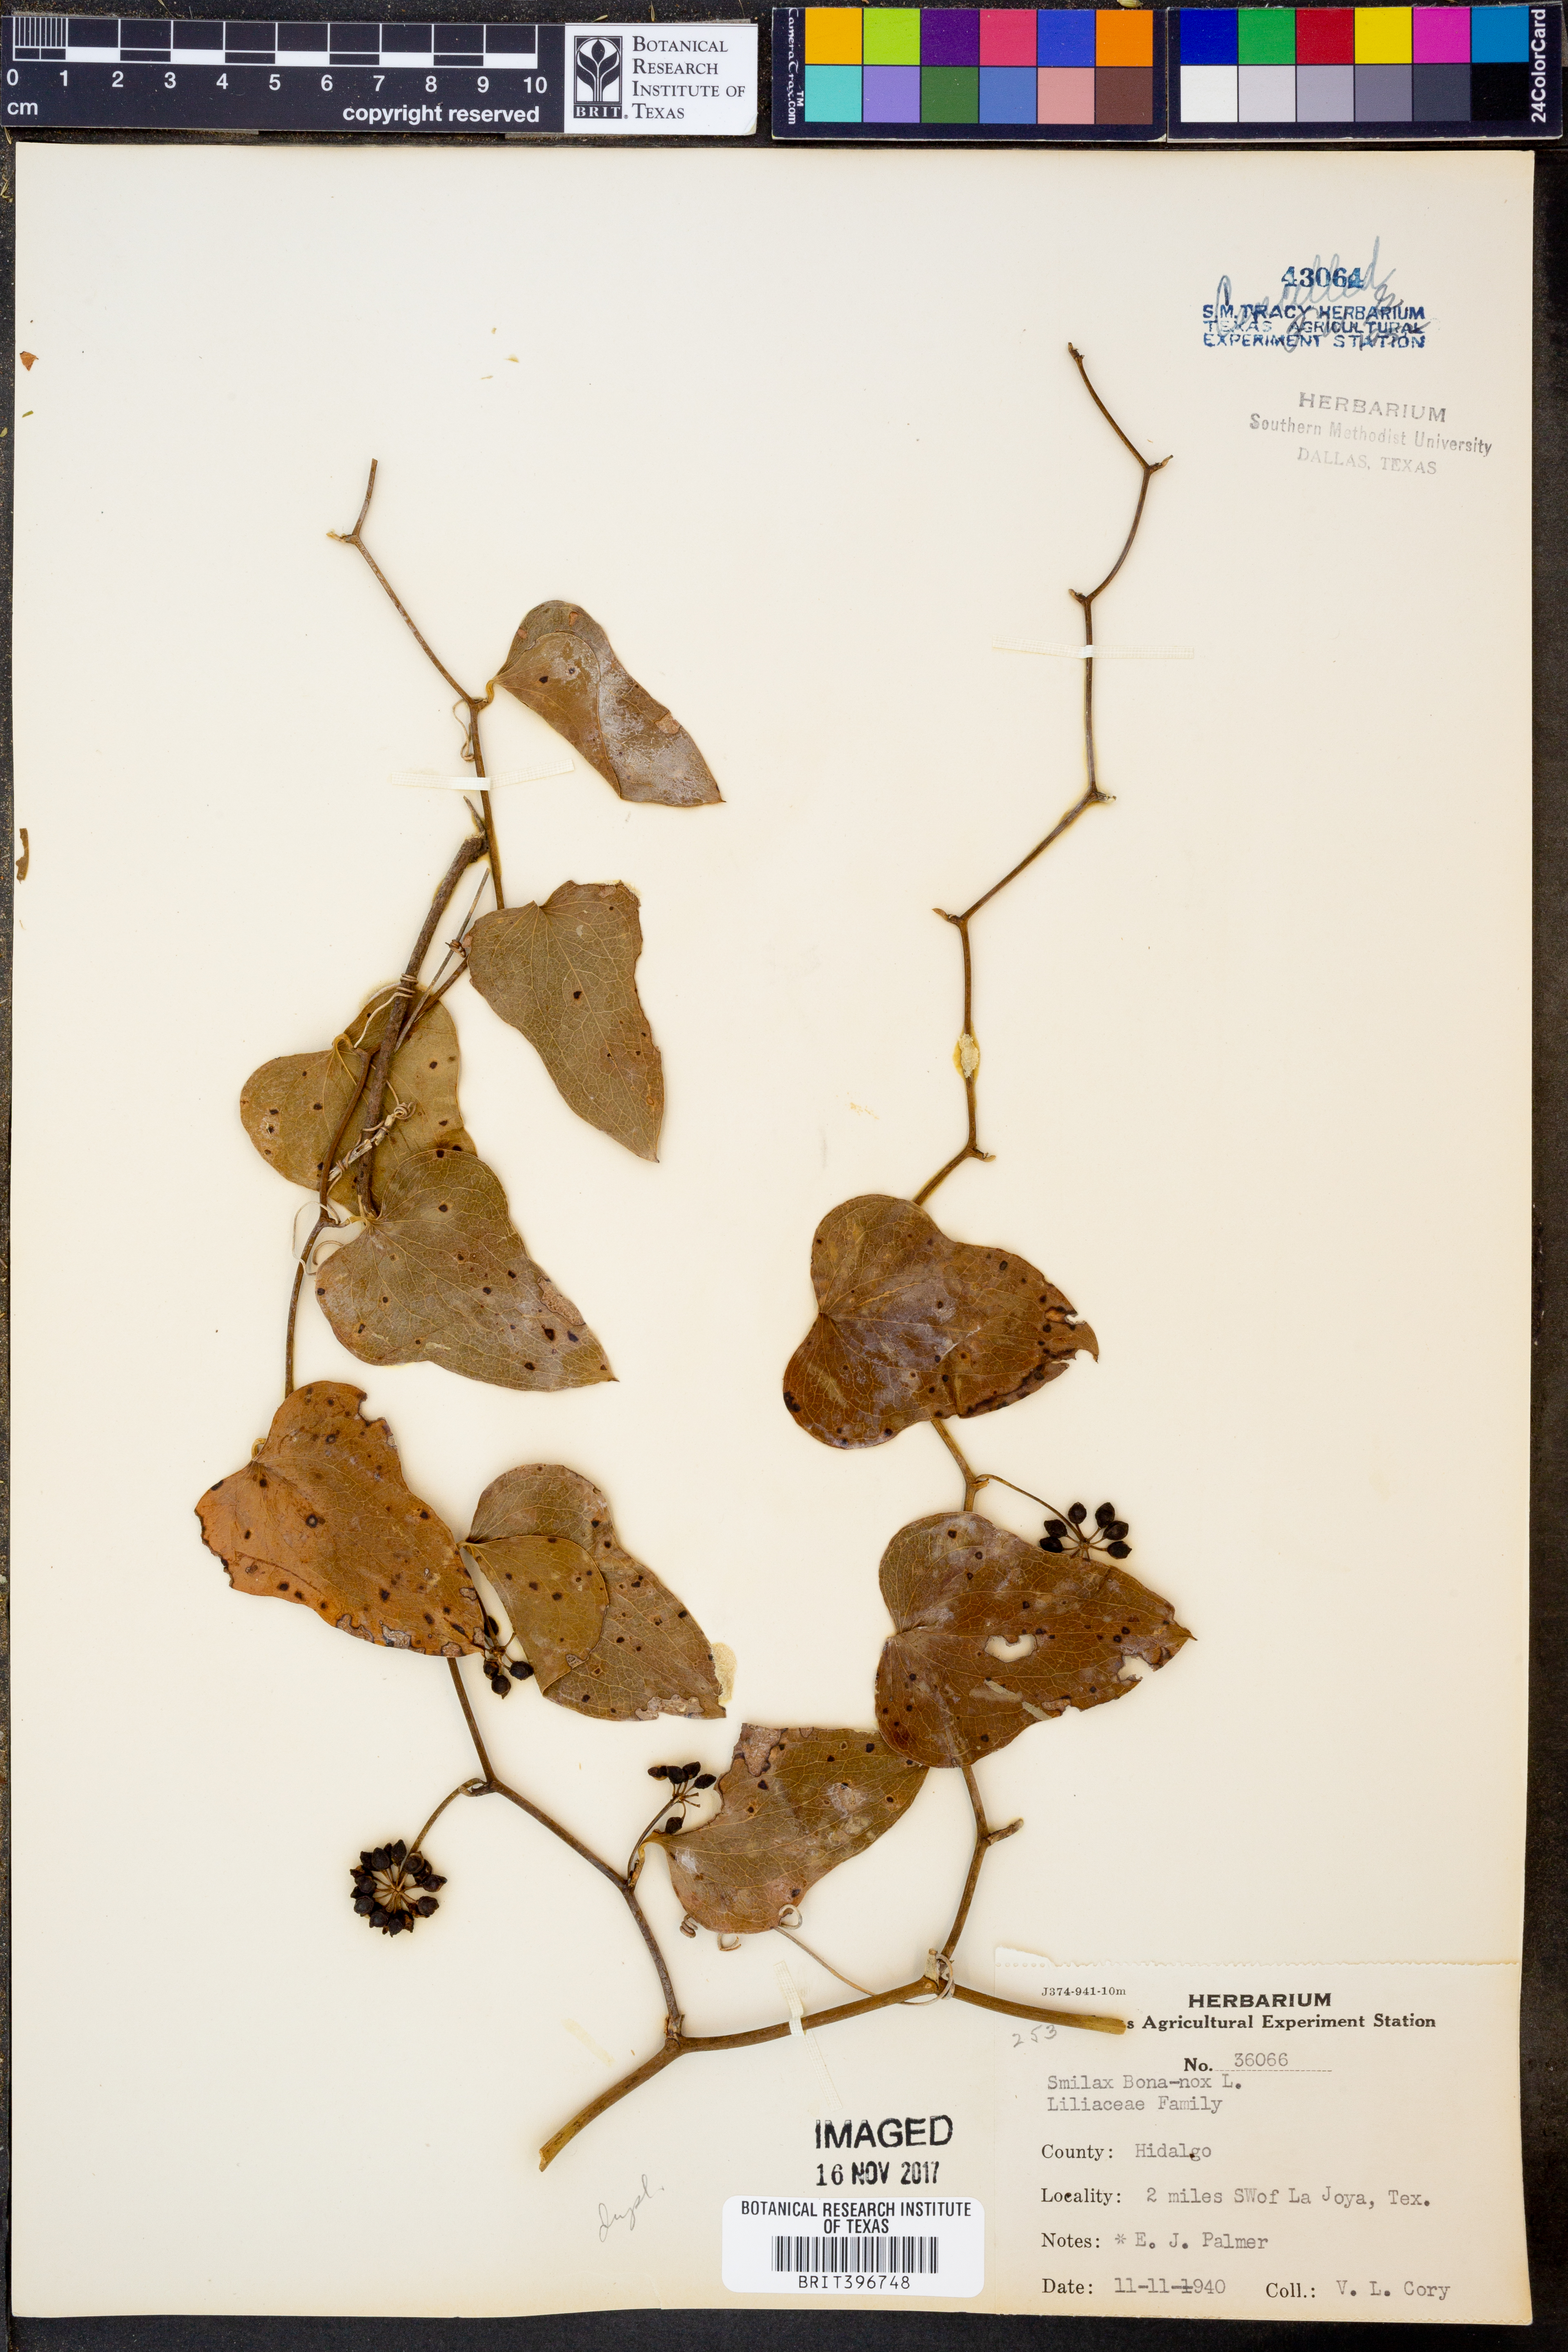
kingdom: Plantae
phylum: Tracheophyta
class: Liliopsida
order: Liliales
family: Smilacaceae
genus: Smilax
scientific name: Smilax bona-nox
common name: Catbrier
